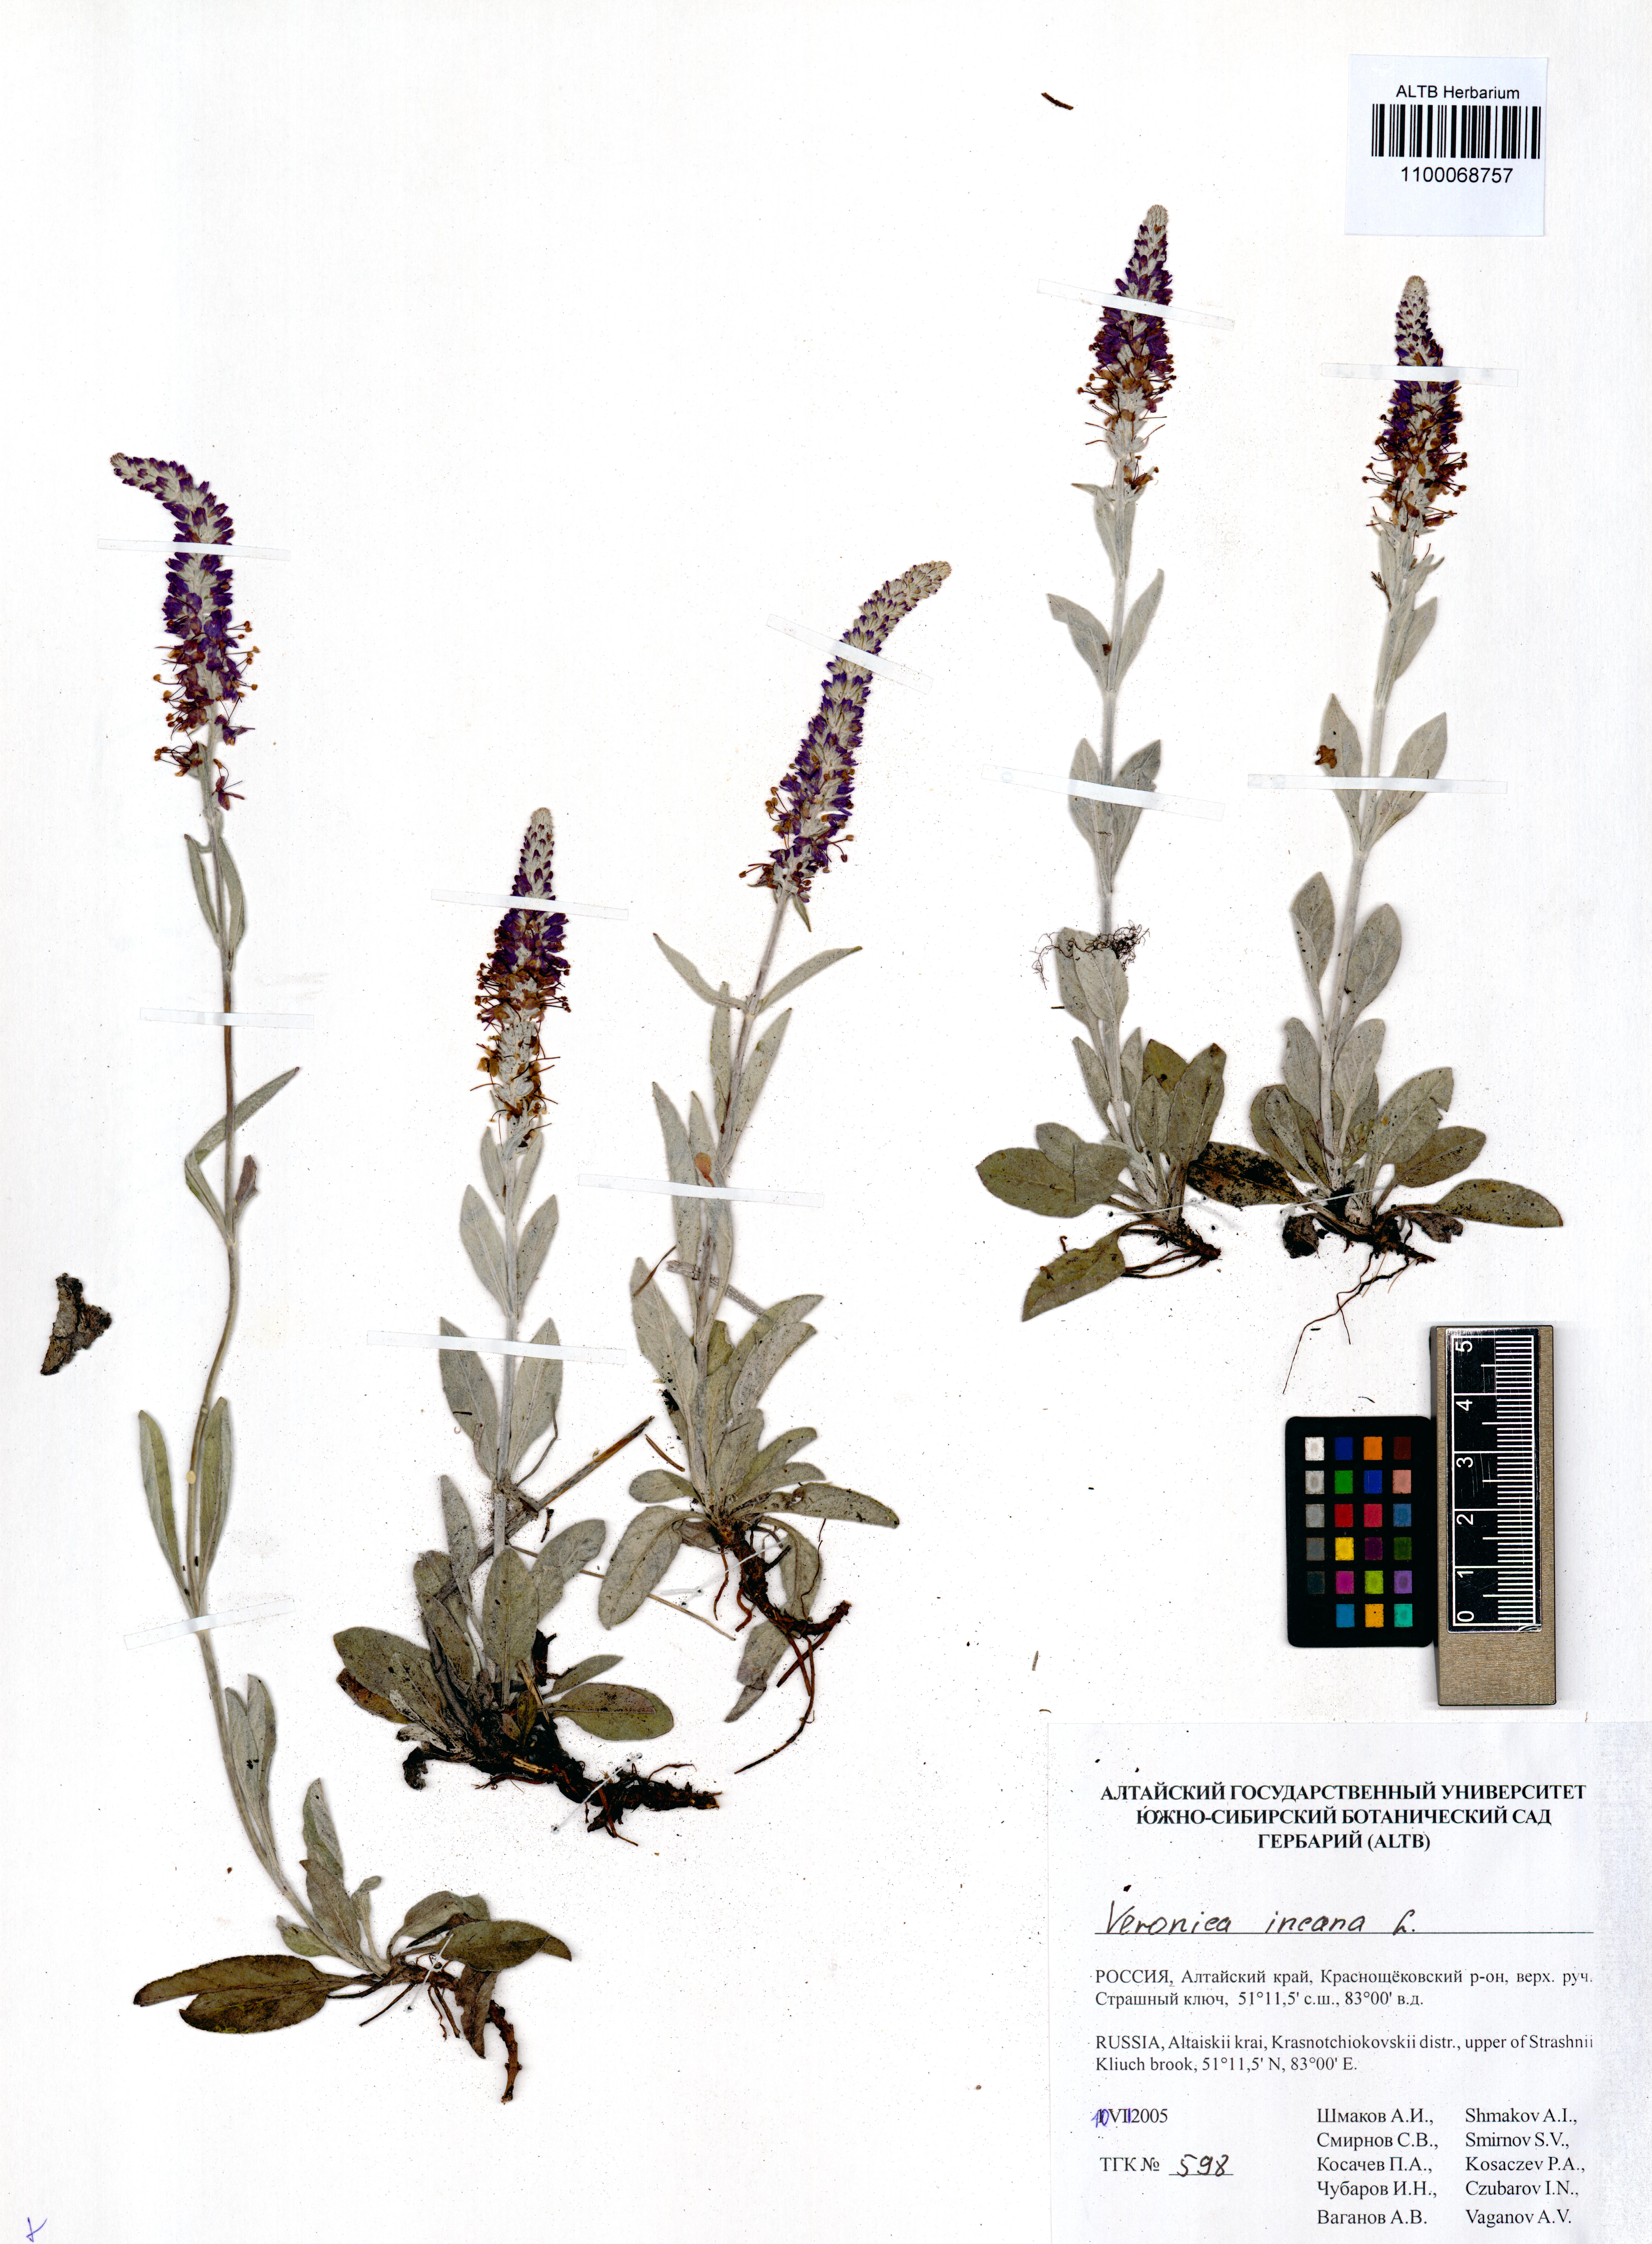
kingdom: Plantae
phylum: Tracheophyta
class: Magnoliopsida
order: Lamiales
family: Plantaginaceae
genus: Veronica
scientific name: Veronica incana
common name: Silver speedwell
